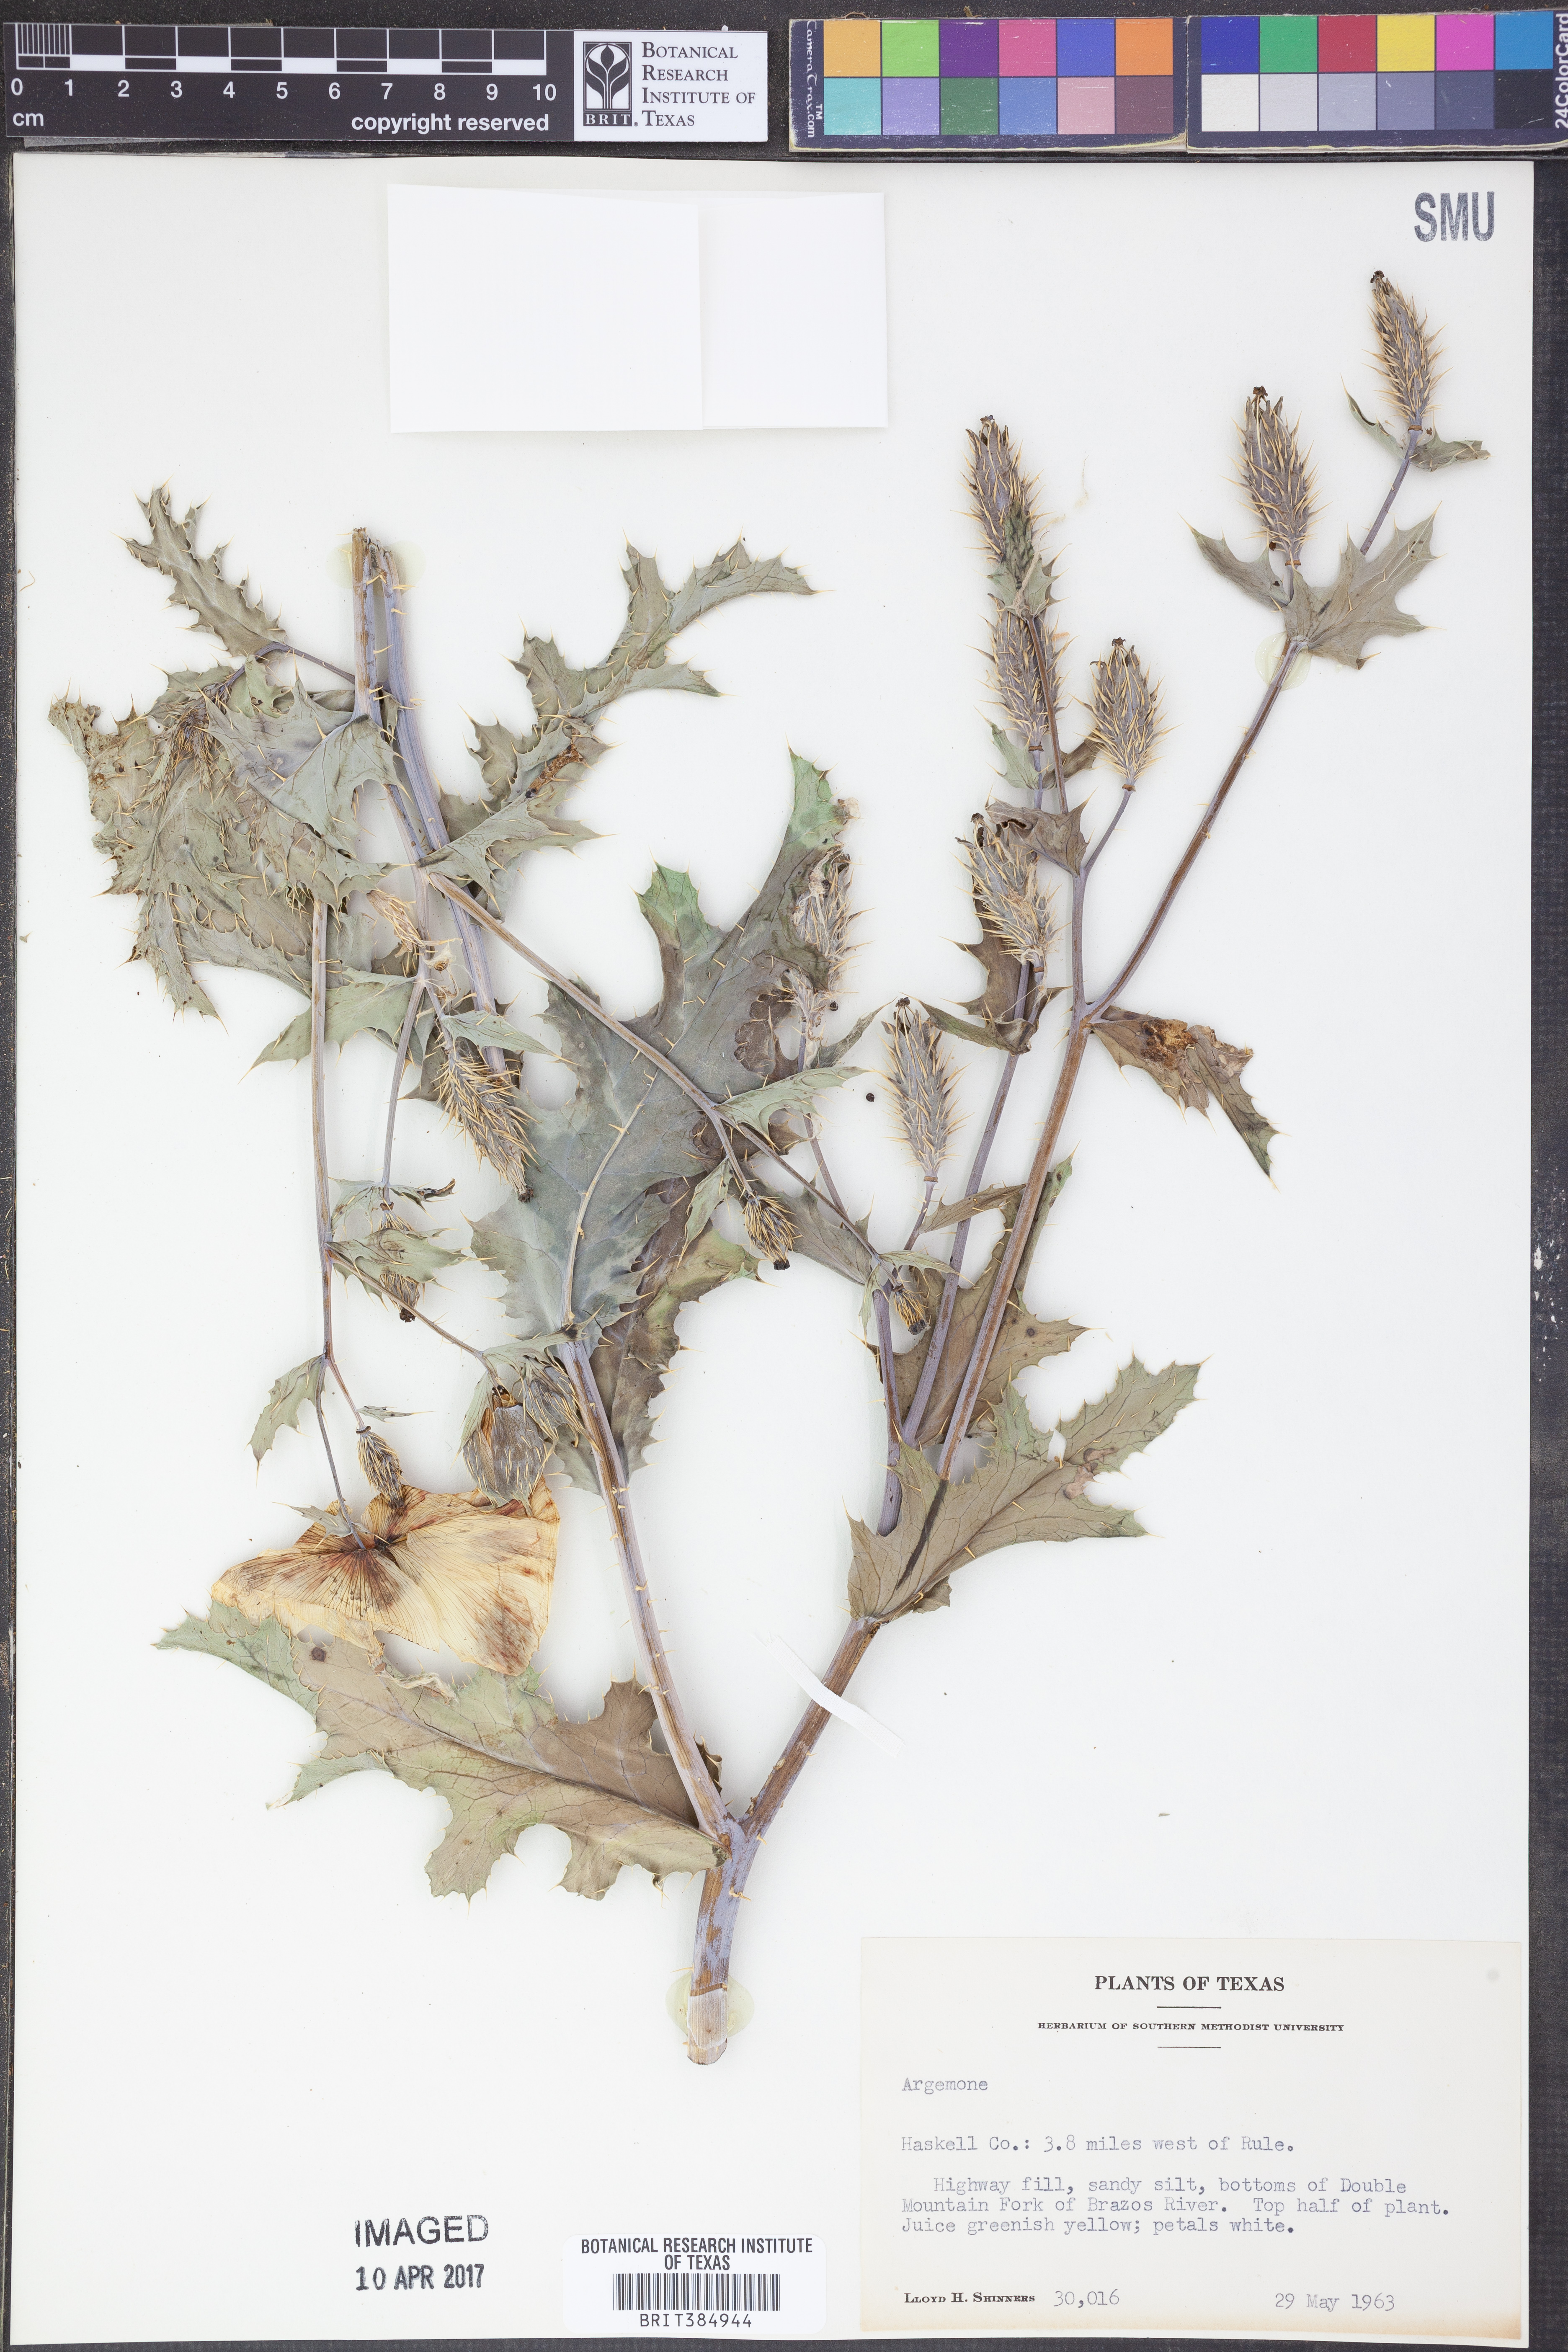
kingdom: Plantae
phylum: Tracheophyta
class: Magnoliopsida
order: Ranunculales
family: Papaveraceae
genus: Argemone
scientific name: Argemone
